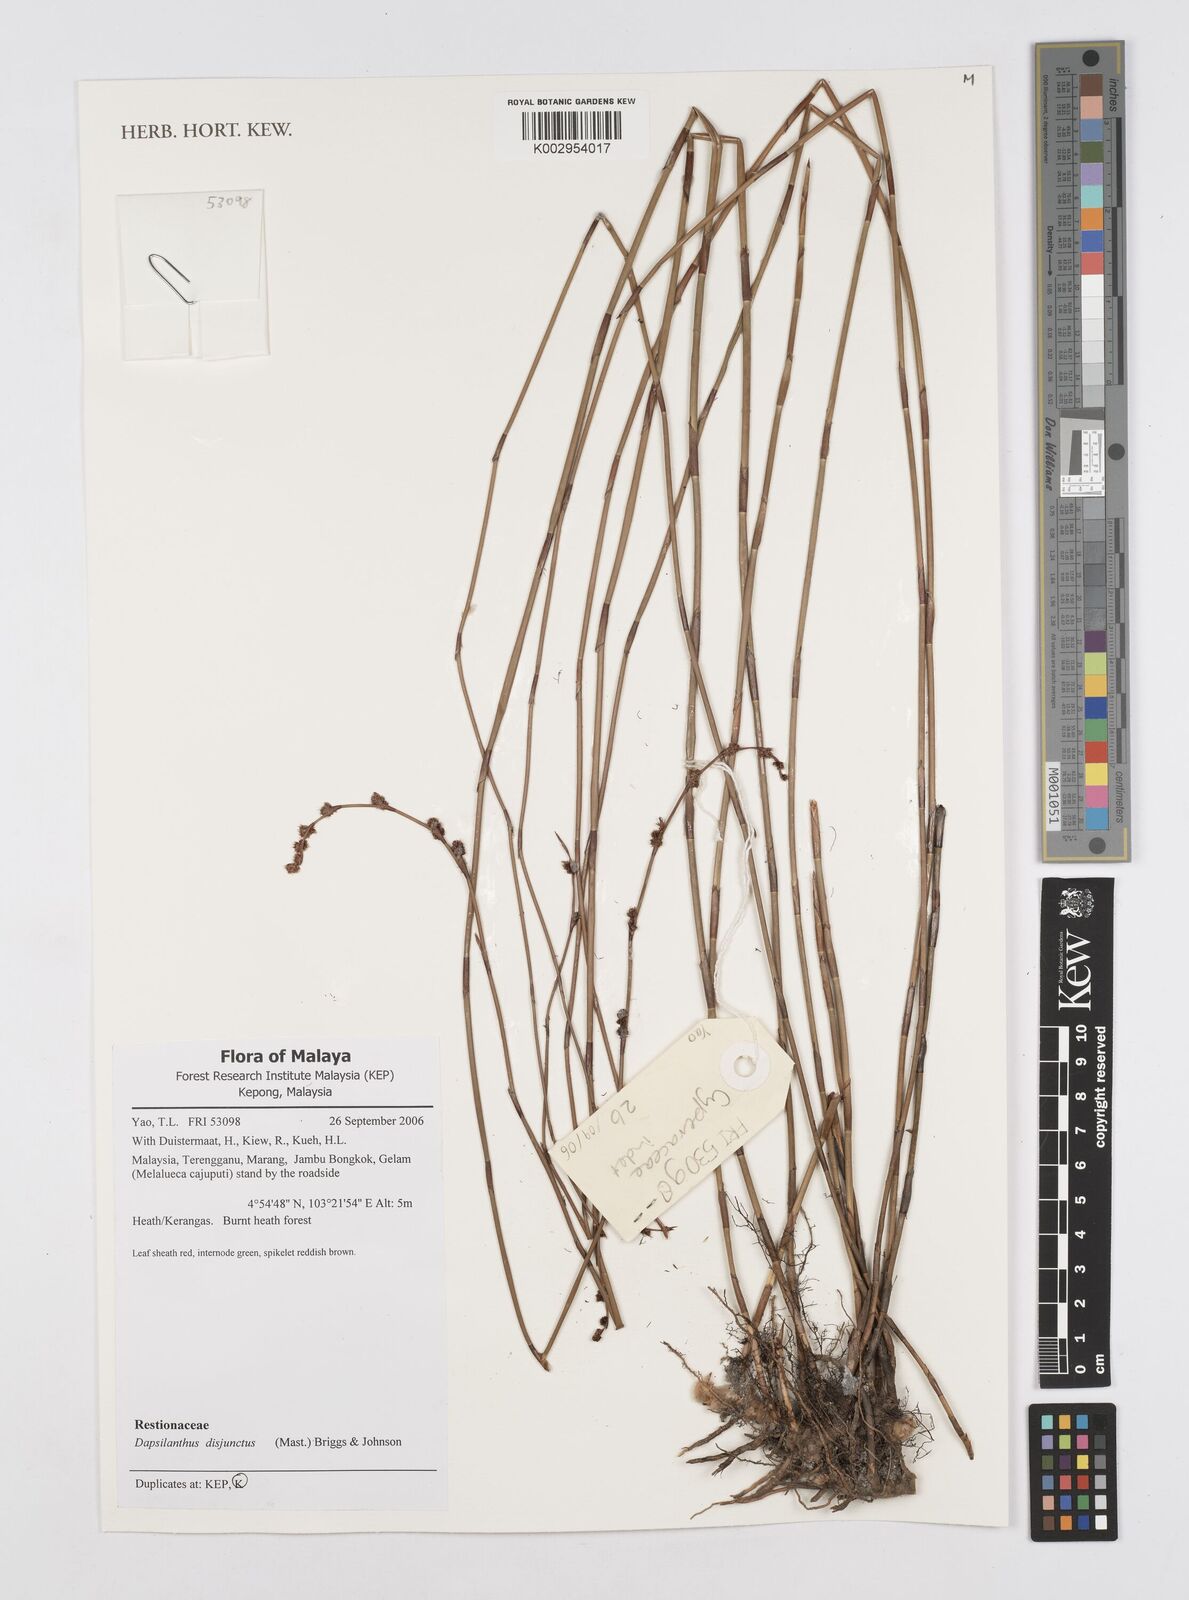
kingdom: Plantae
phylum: Tracheophyta
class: Liliopsida
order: Poales
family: Restionaceae
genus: Dapsilanthus
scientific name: Dapsilanthus disjunctus
